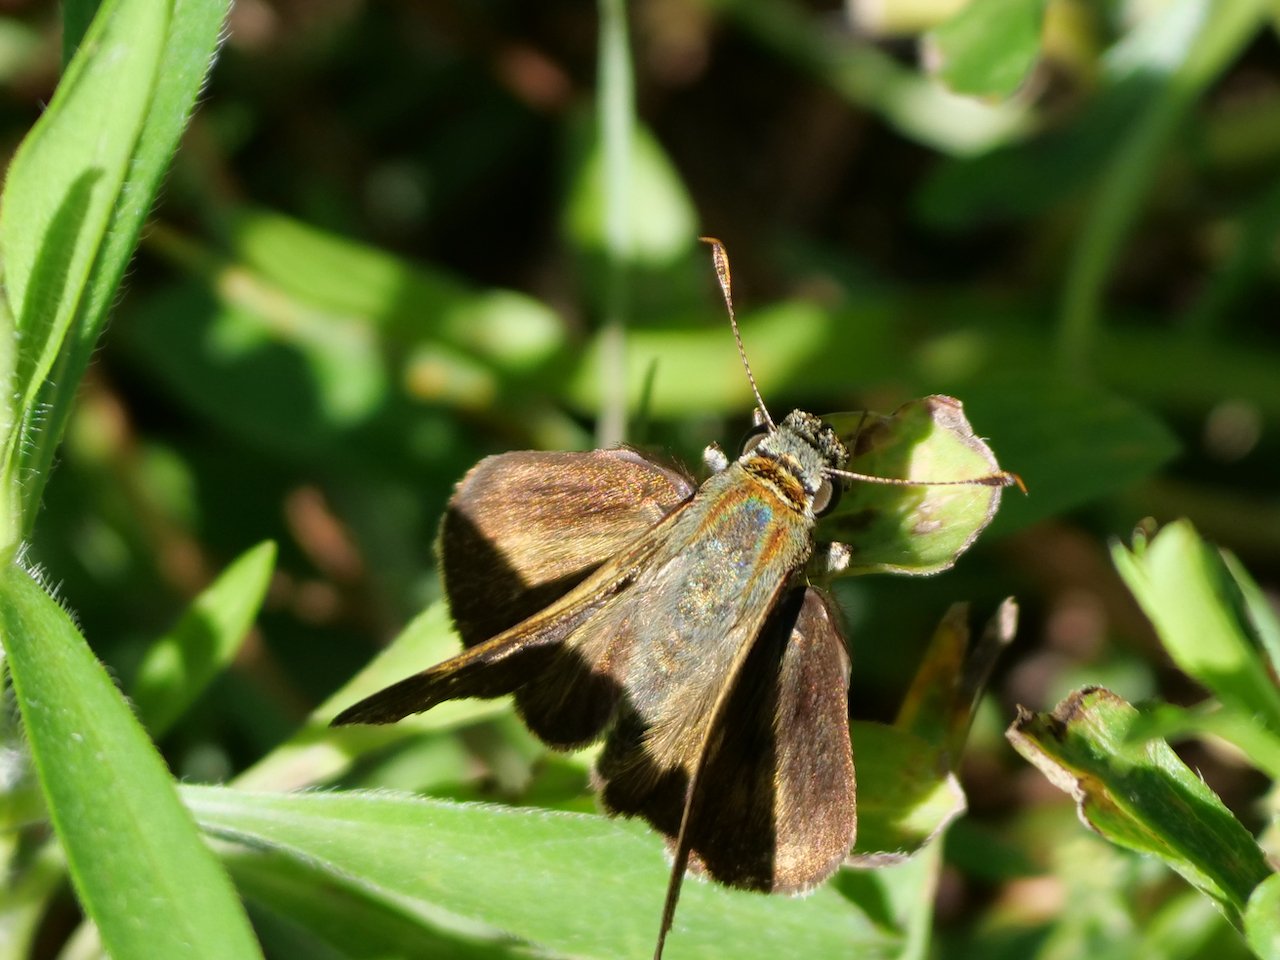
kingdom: Animalia
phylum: Arthropoda
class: Insecta
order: Lepidoptera
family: Hesperiidae
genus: Euphyes
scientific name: Euphyes vestris
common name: Dun Skipper
